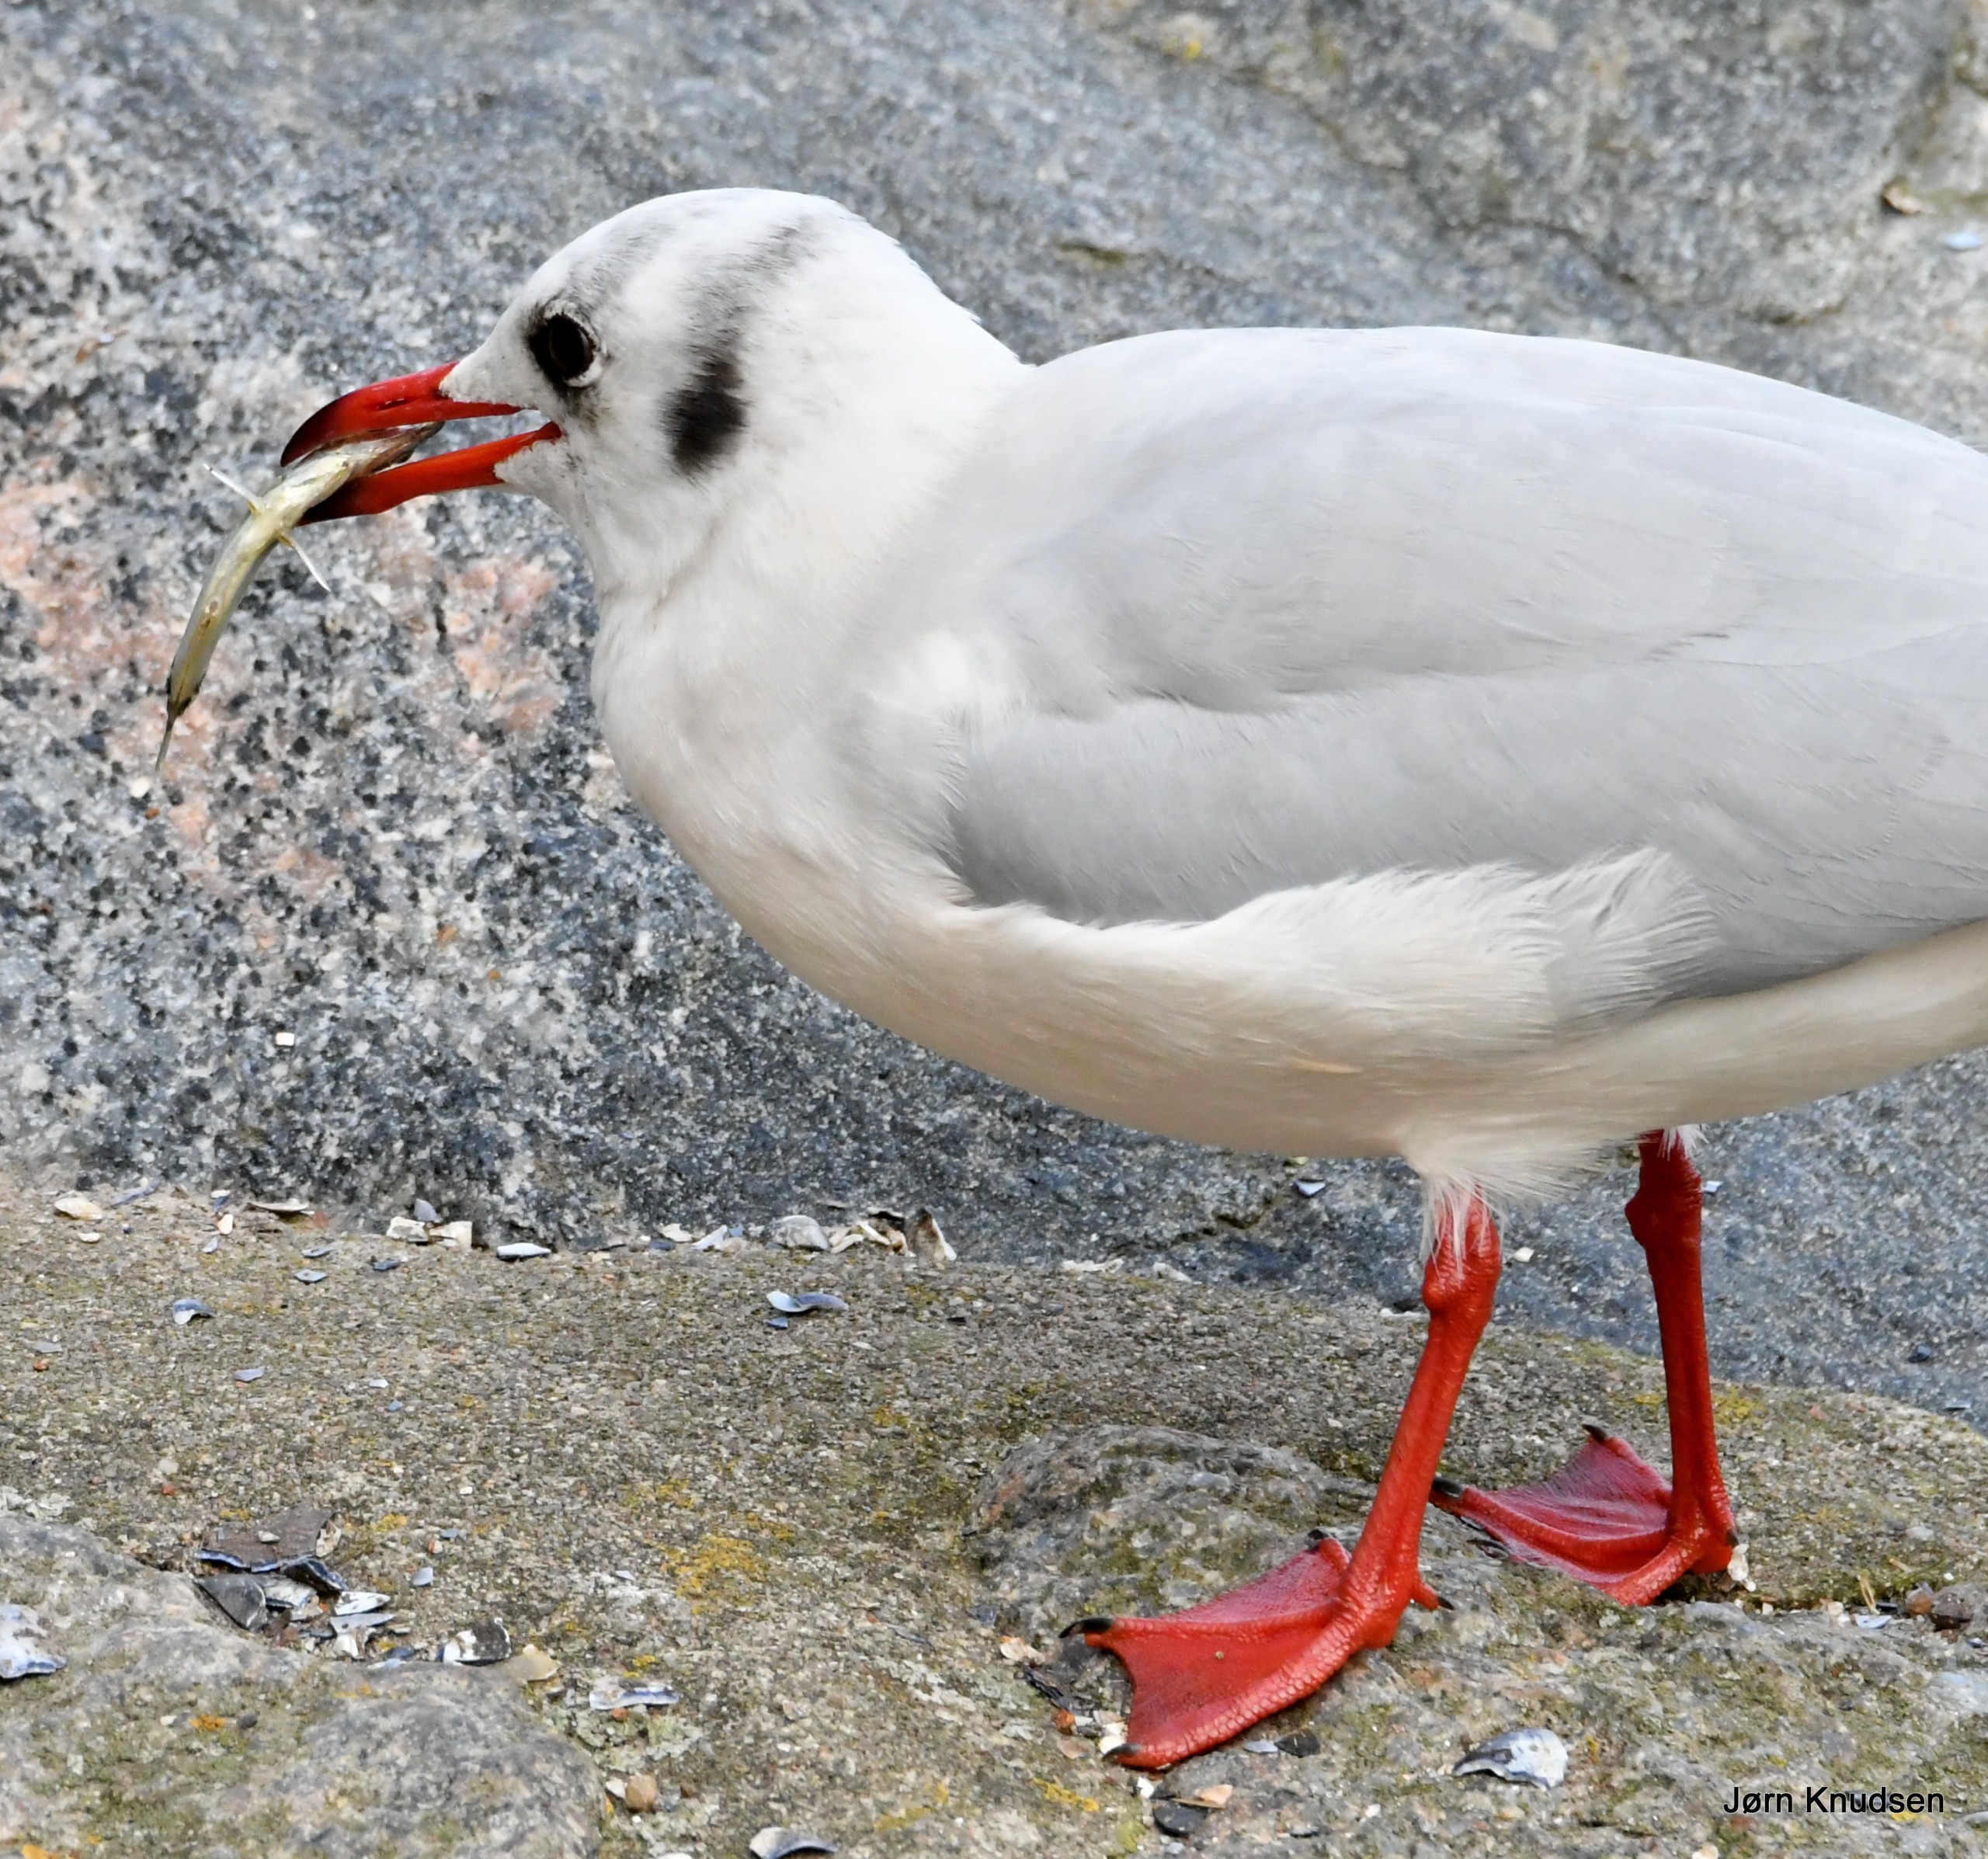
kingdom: Animalia
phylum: Chordata
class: Aves
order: Charadriiformes
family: Laridae
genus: Chroicocephalus
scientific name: Chroicocephalus ridibundus
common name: Hættemåge
